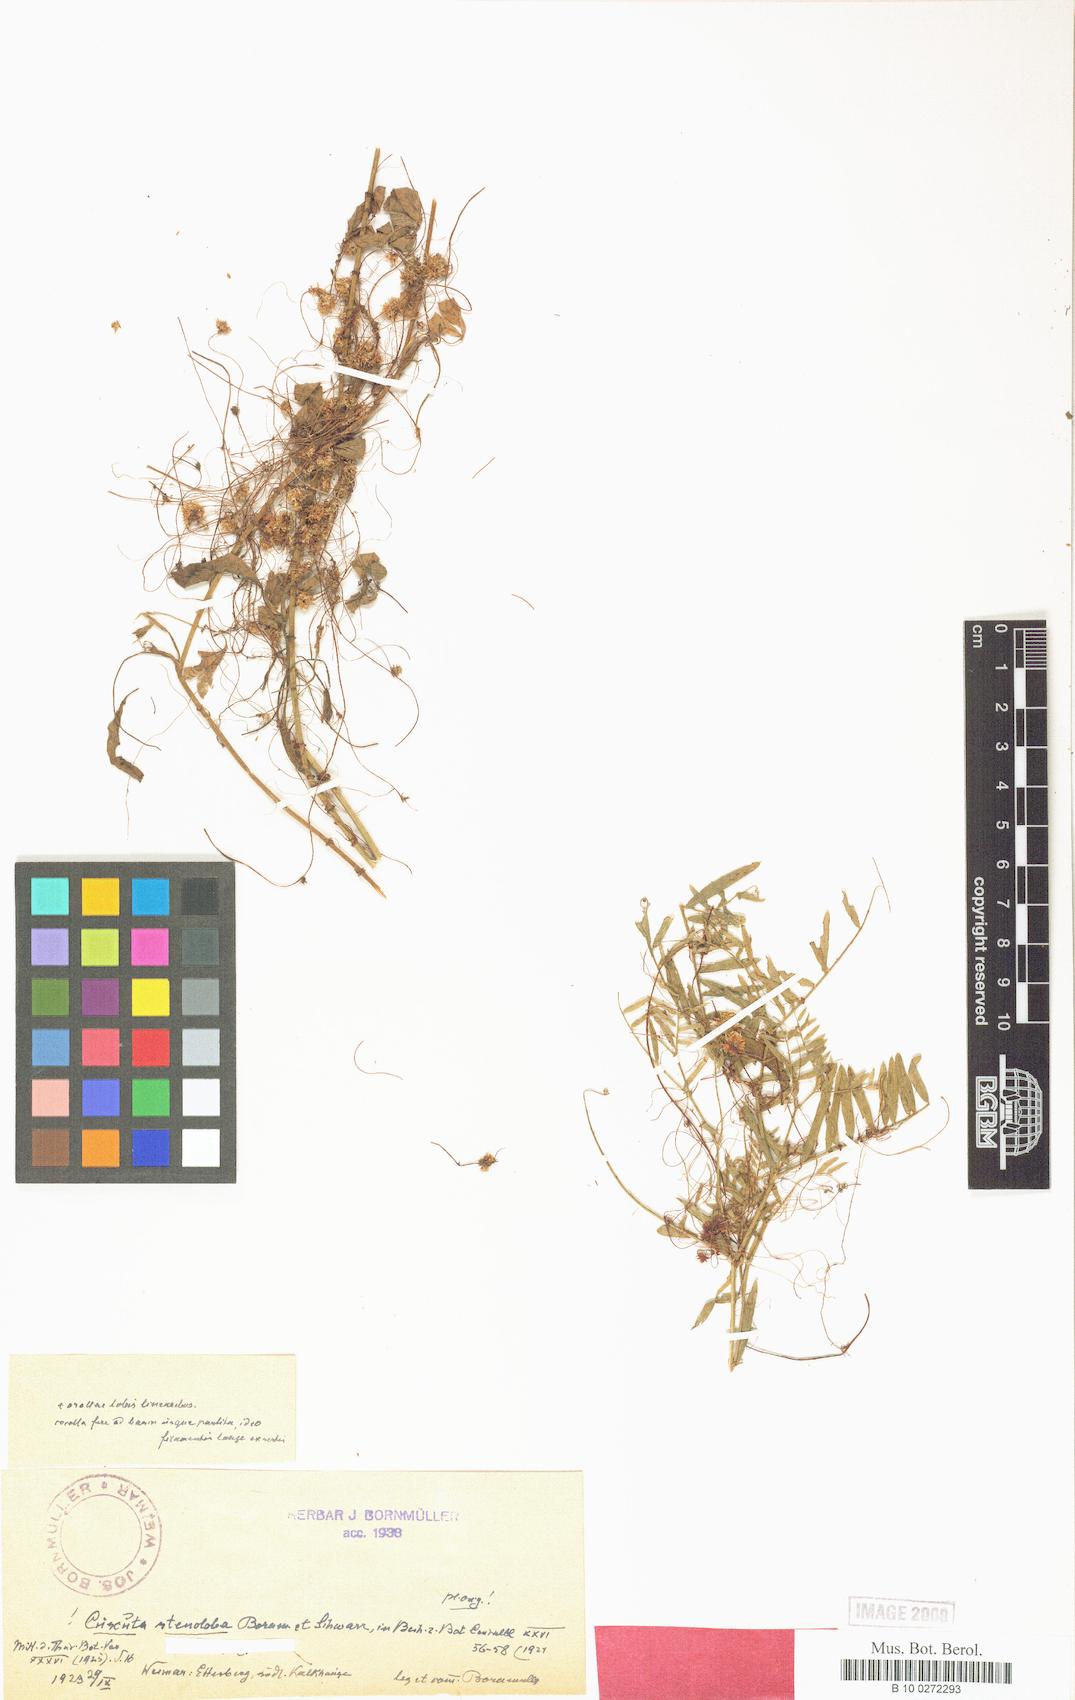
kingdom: Plantae
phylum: Tracheophyta
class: Magnoliopsida
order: Solanales
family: Convolvulaceae
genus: Cuscuta
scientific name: Cuscuta epithymum
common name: Clover dodder
